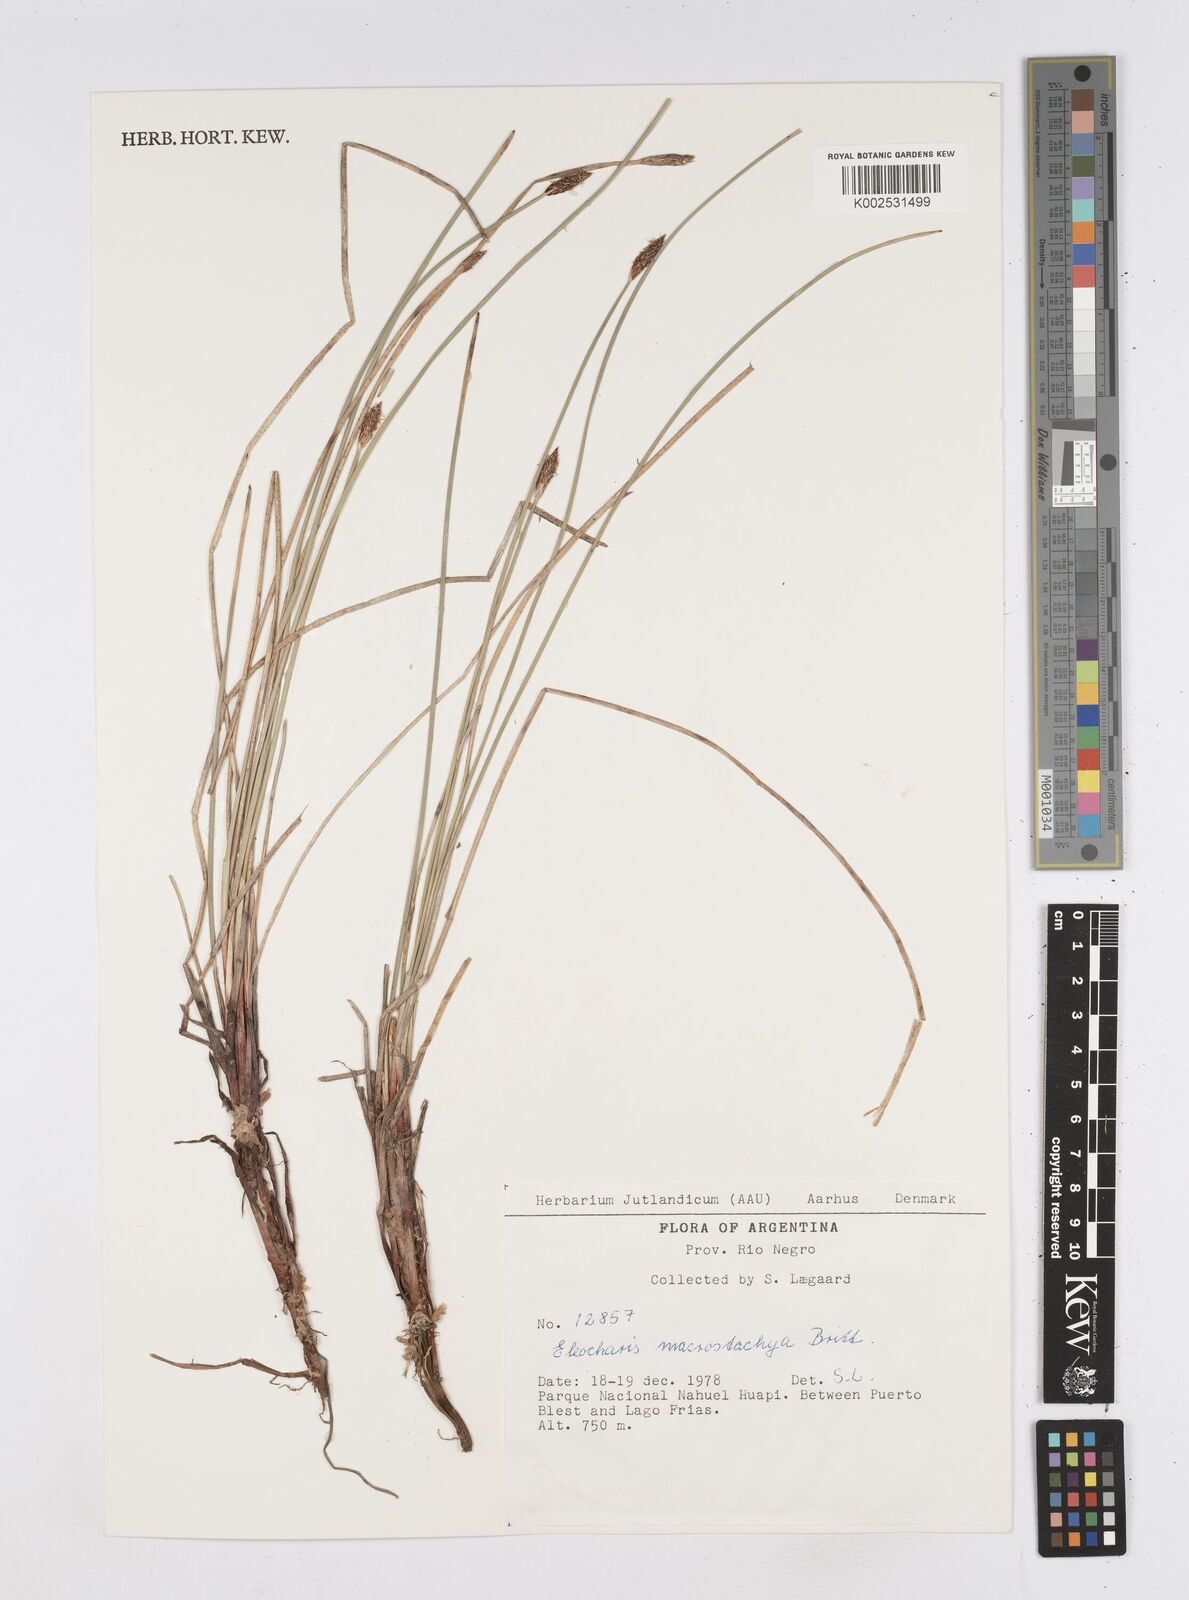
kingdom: Plantae
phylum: Tracheophyta
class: Liliopsida
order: Poales
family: Cyperaceae
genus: Eleocharis
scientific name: Eleocharis macrostachya
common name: Pale spikerush
